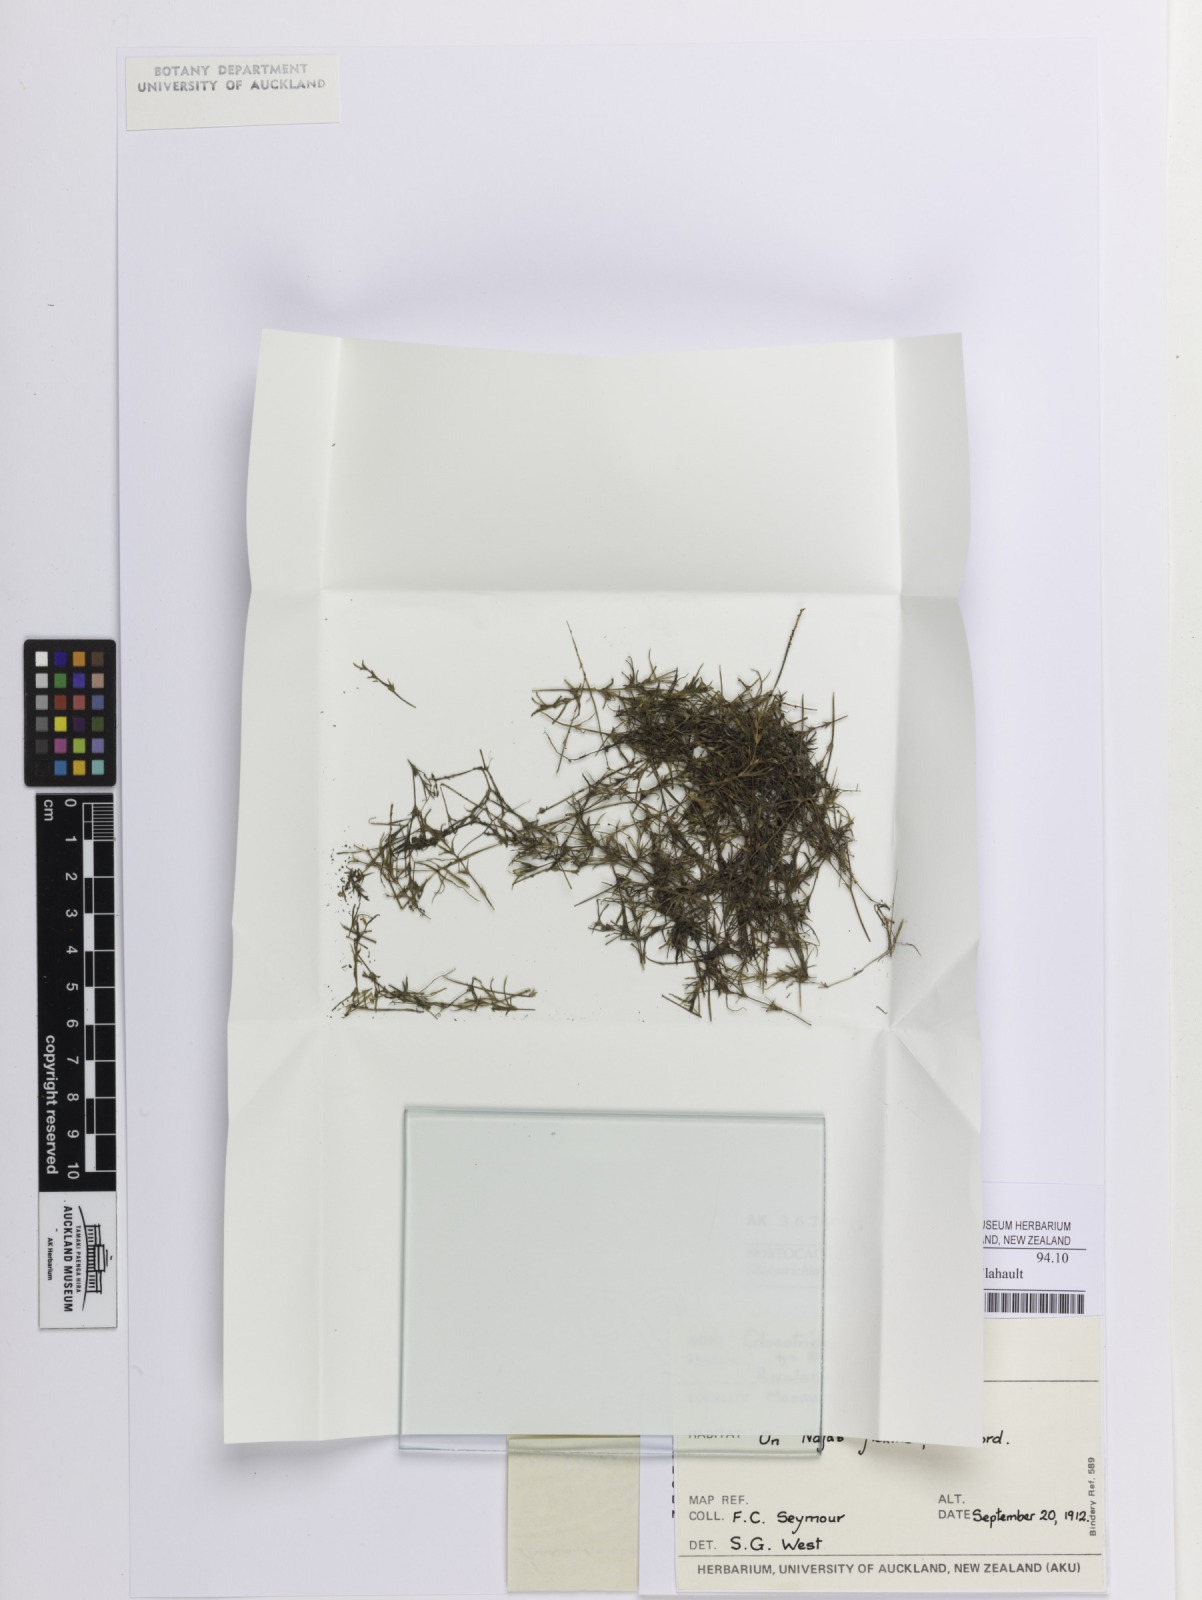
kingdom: Bacteria
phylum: Cyanobacteria
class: Cyanobacteriia
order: Cyanobacteriales
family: Aphanizomenonaceae
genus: Gloeotrichia
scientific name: Gloeotrichia pisum
